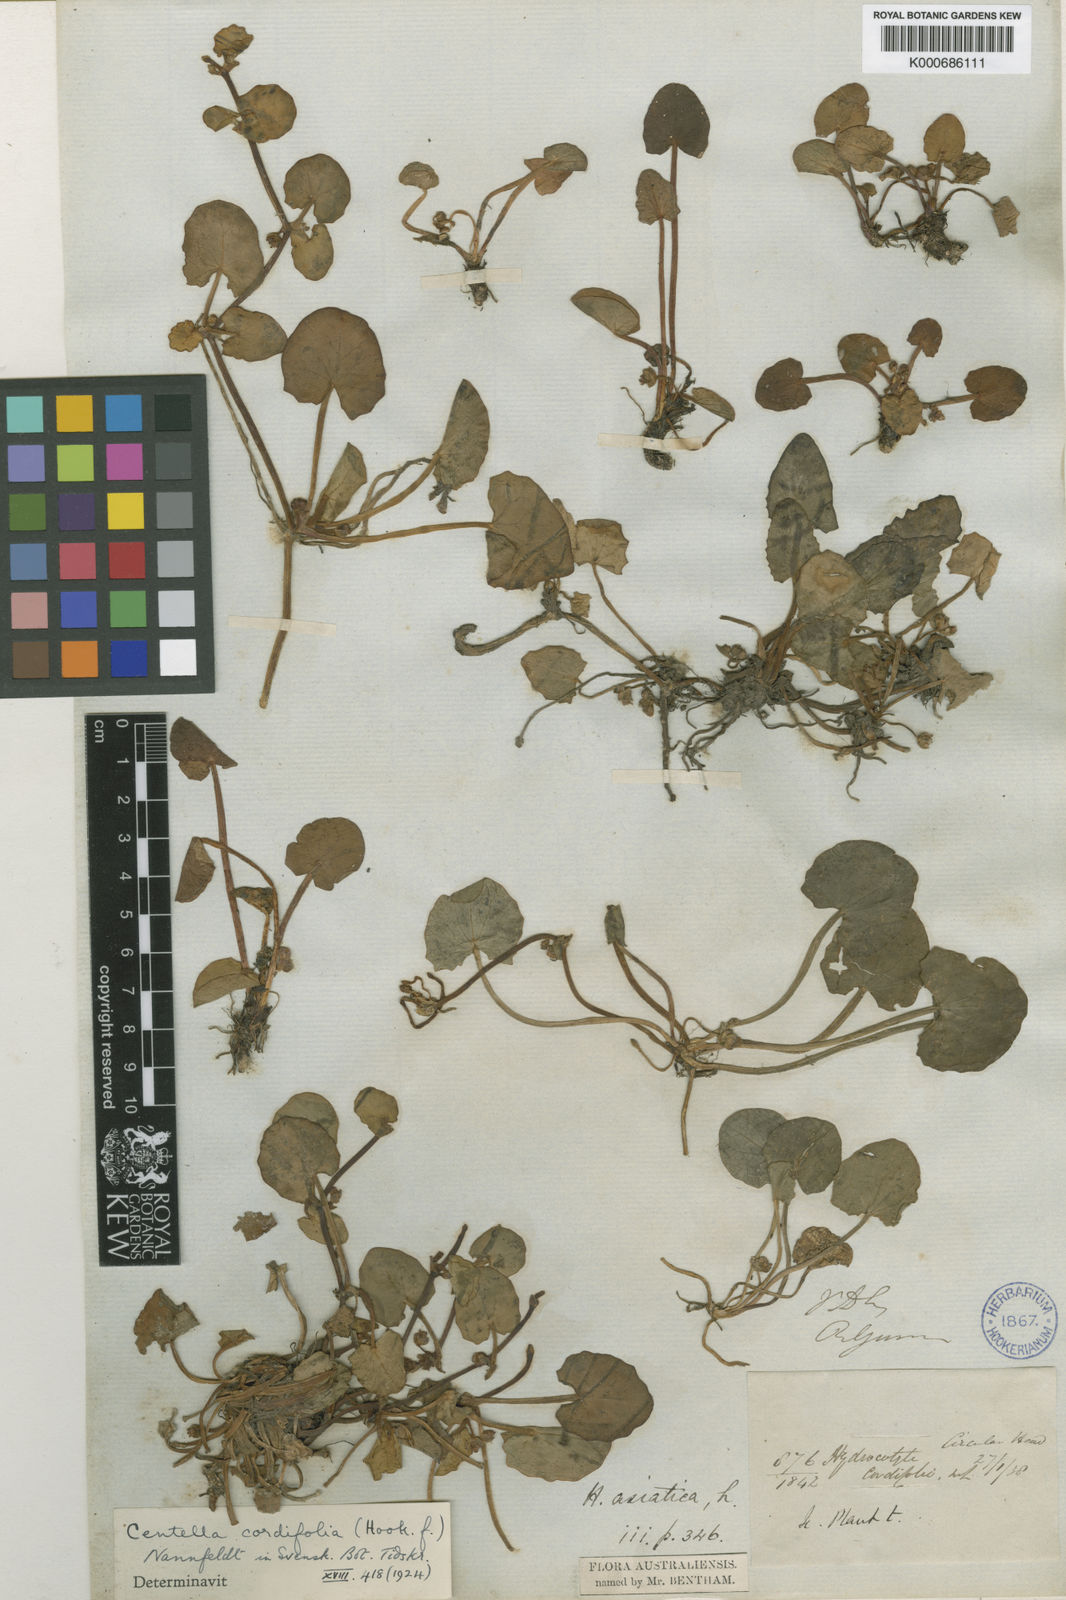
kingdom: Plantae
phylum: Tracheophyta
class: Magnoliopsida
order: Apiales
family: Apiaceae
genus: Centella
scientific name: Centella cordifolia
